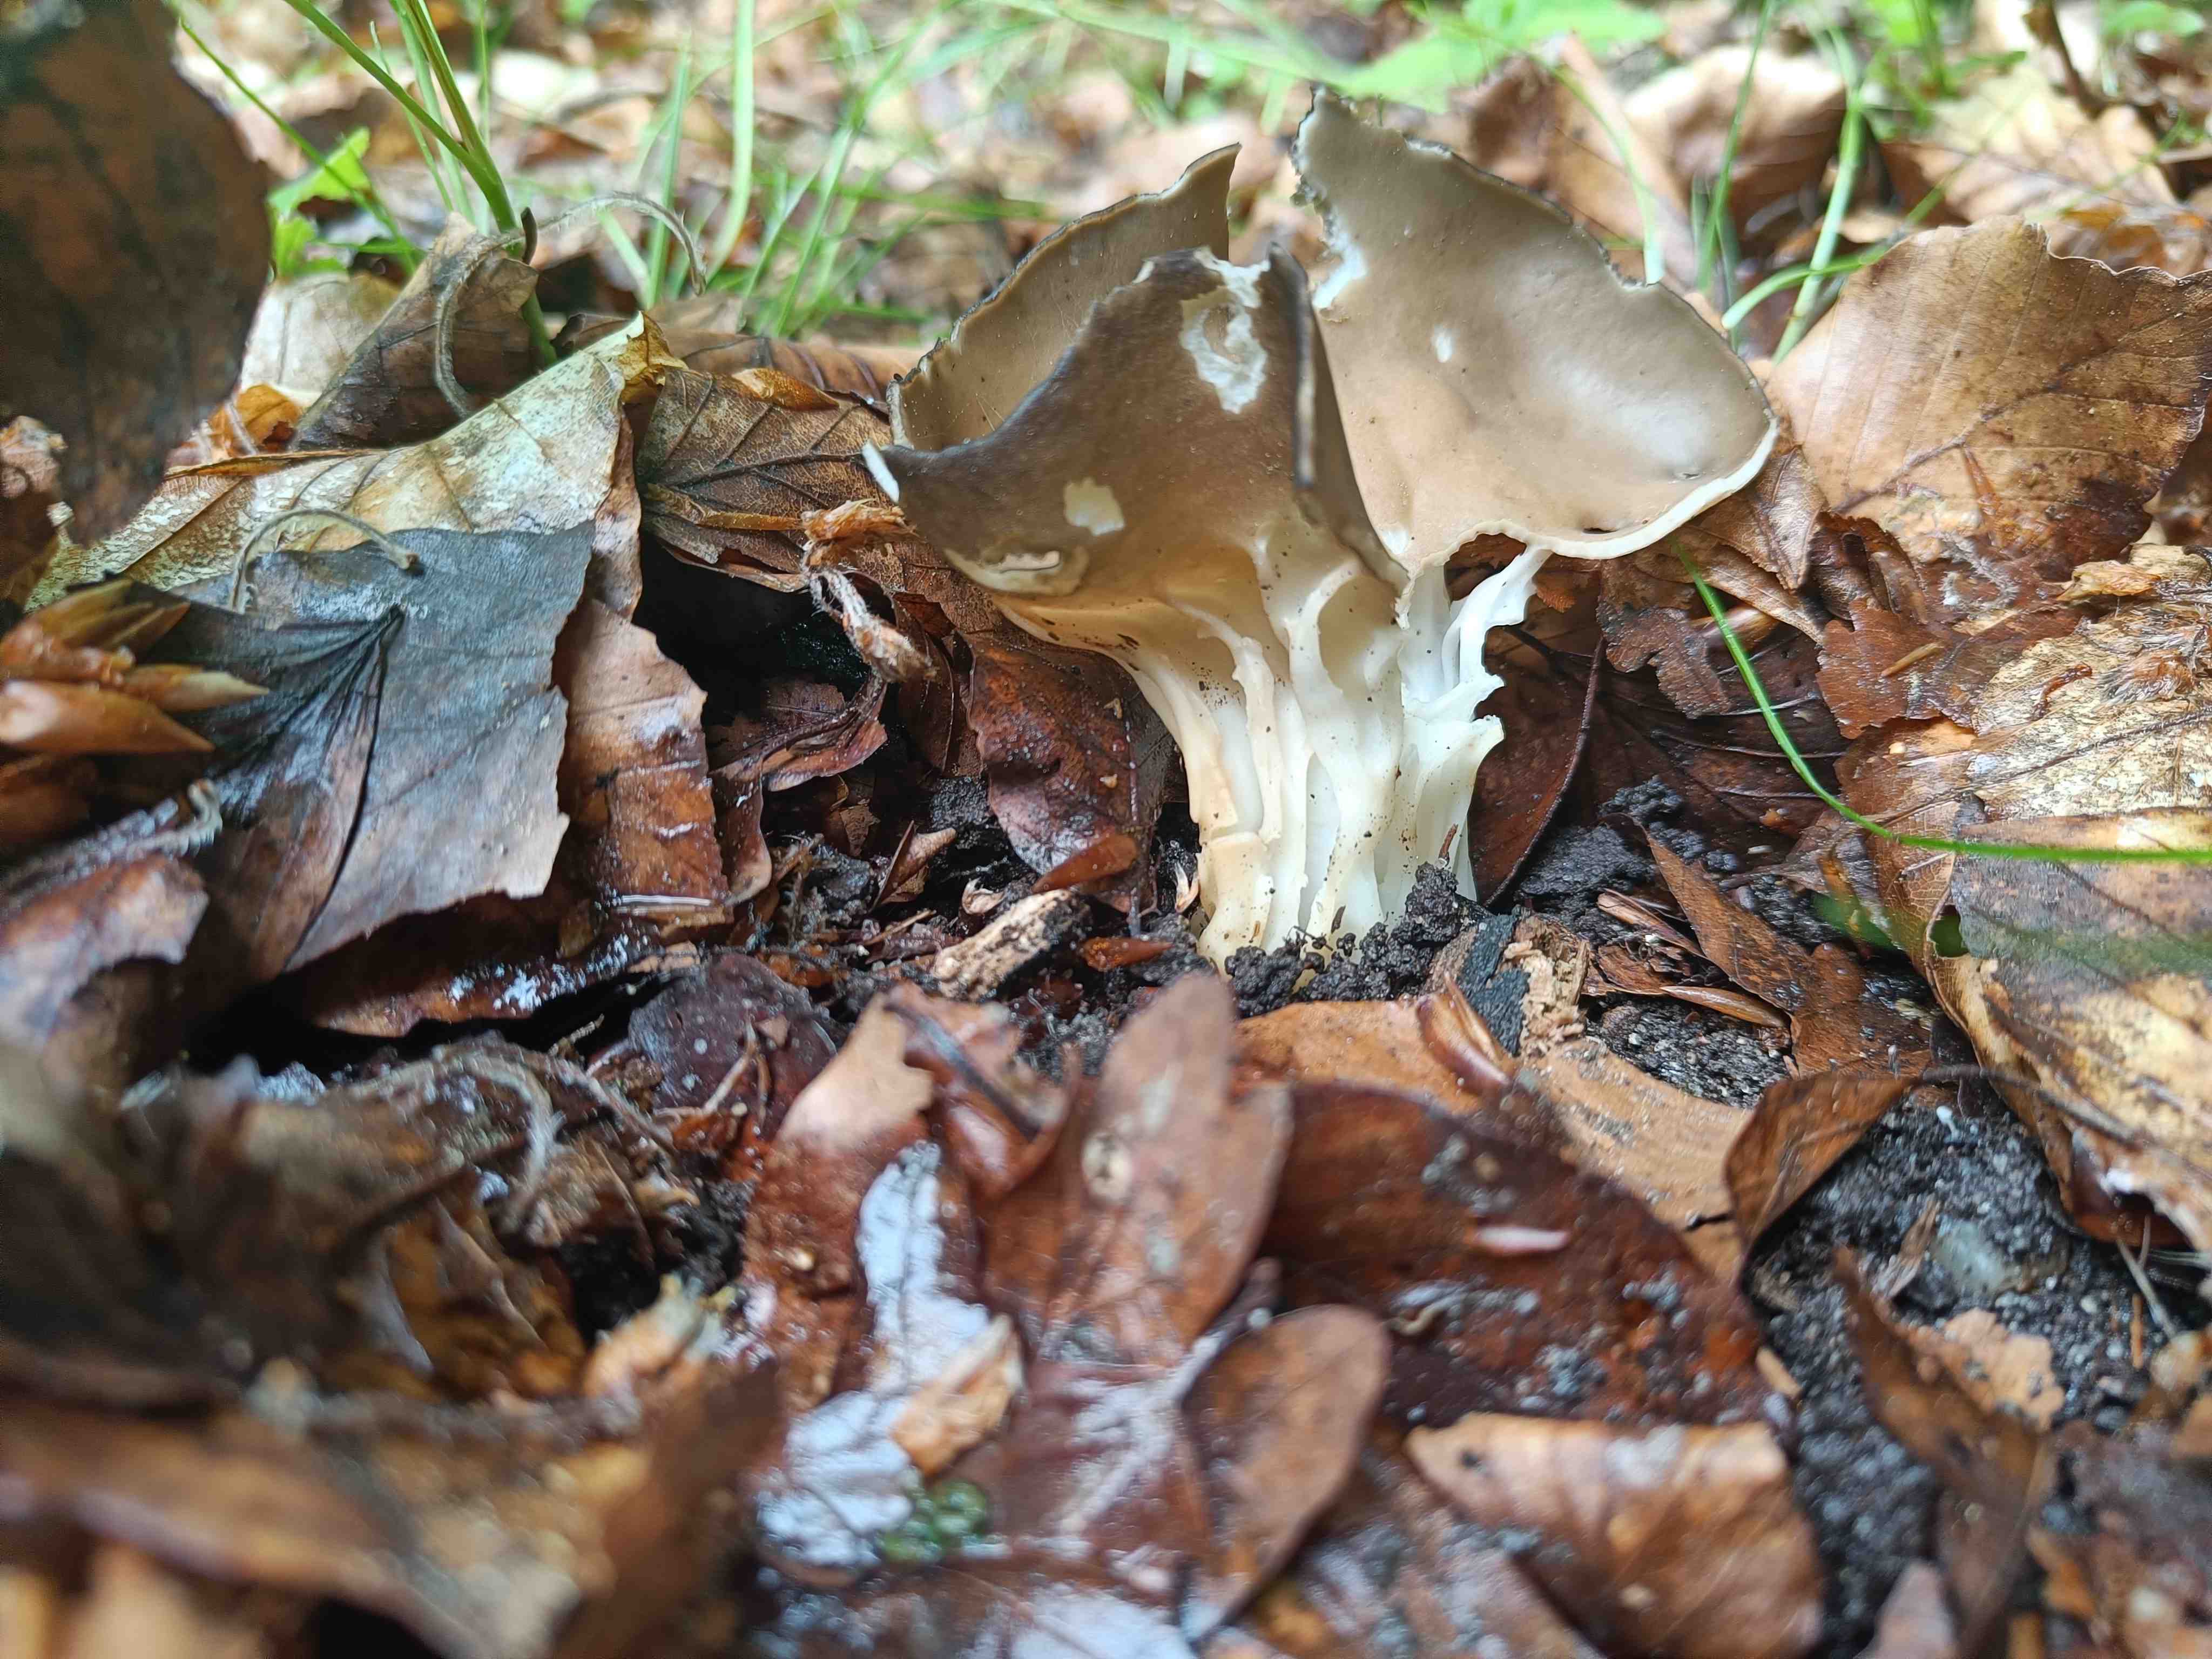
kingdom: Fungi
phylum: Ascomycota
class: Pezizomycetes
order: Pezizales
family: Helvellaceae
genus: Helvella
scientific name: Helvella acetabulum
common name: pokal-foldhat
